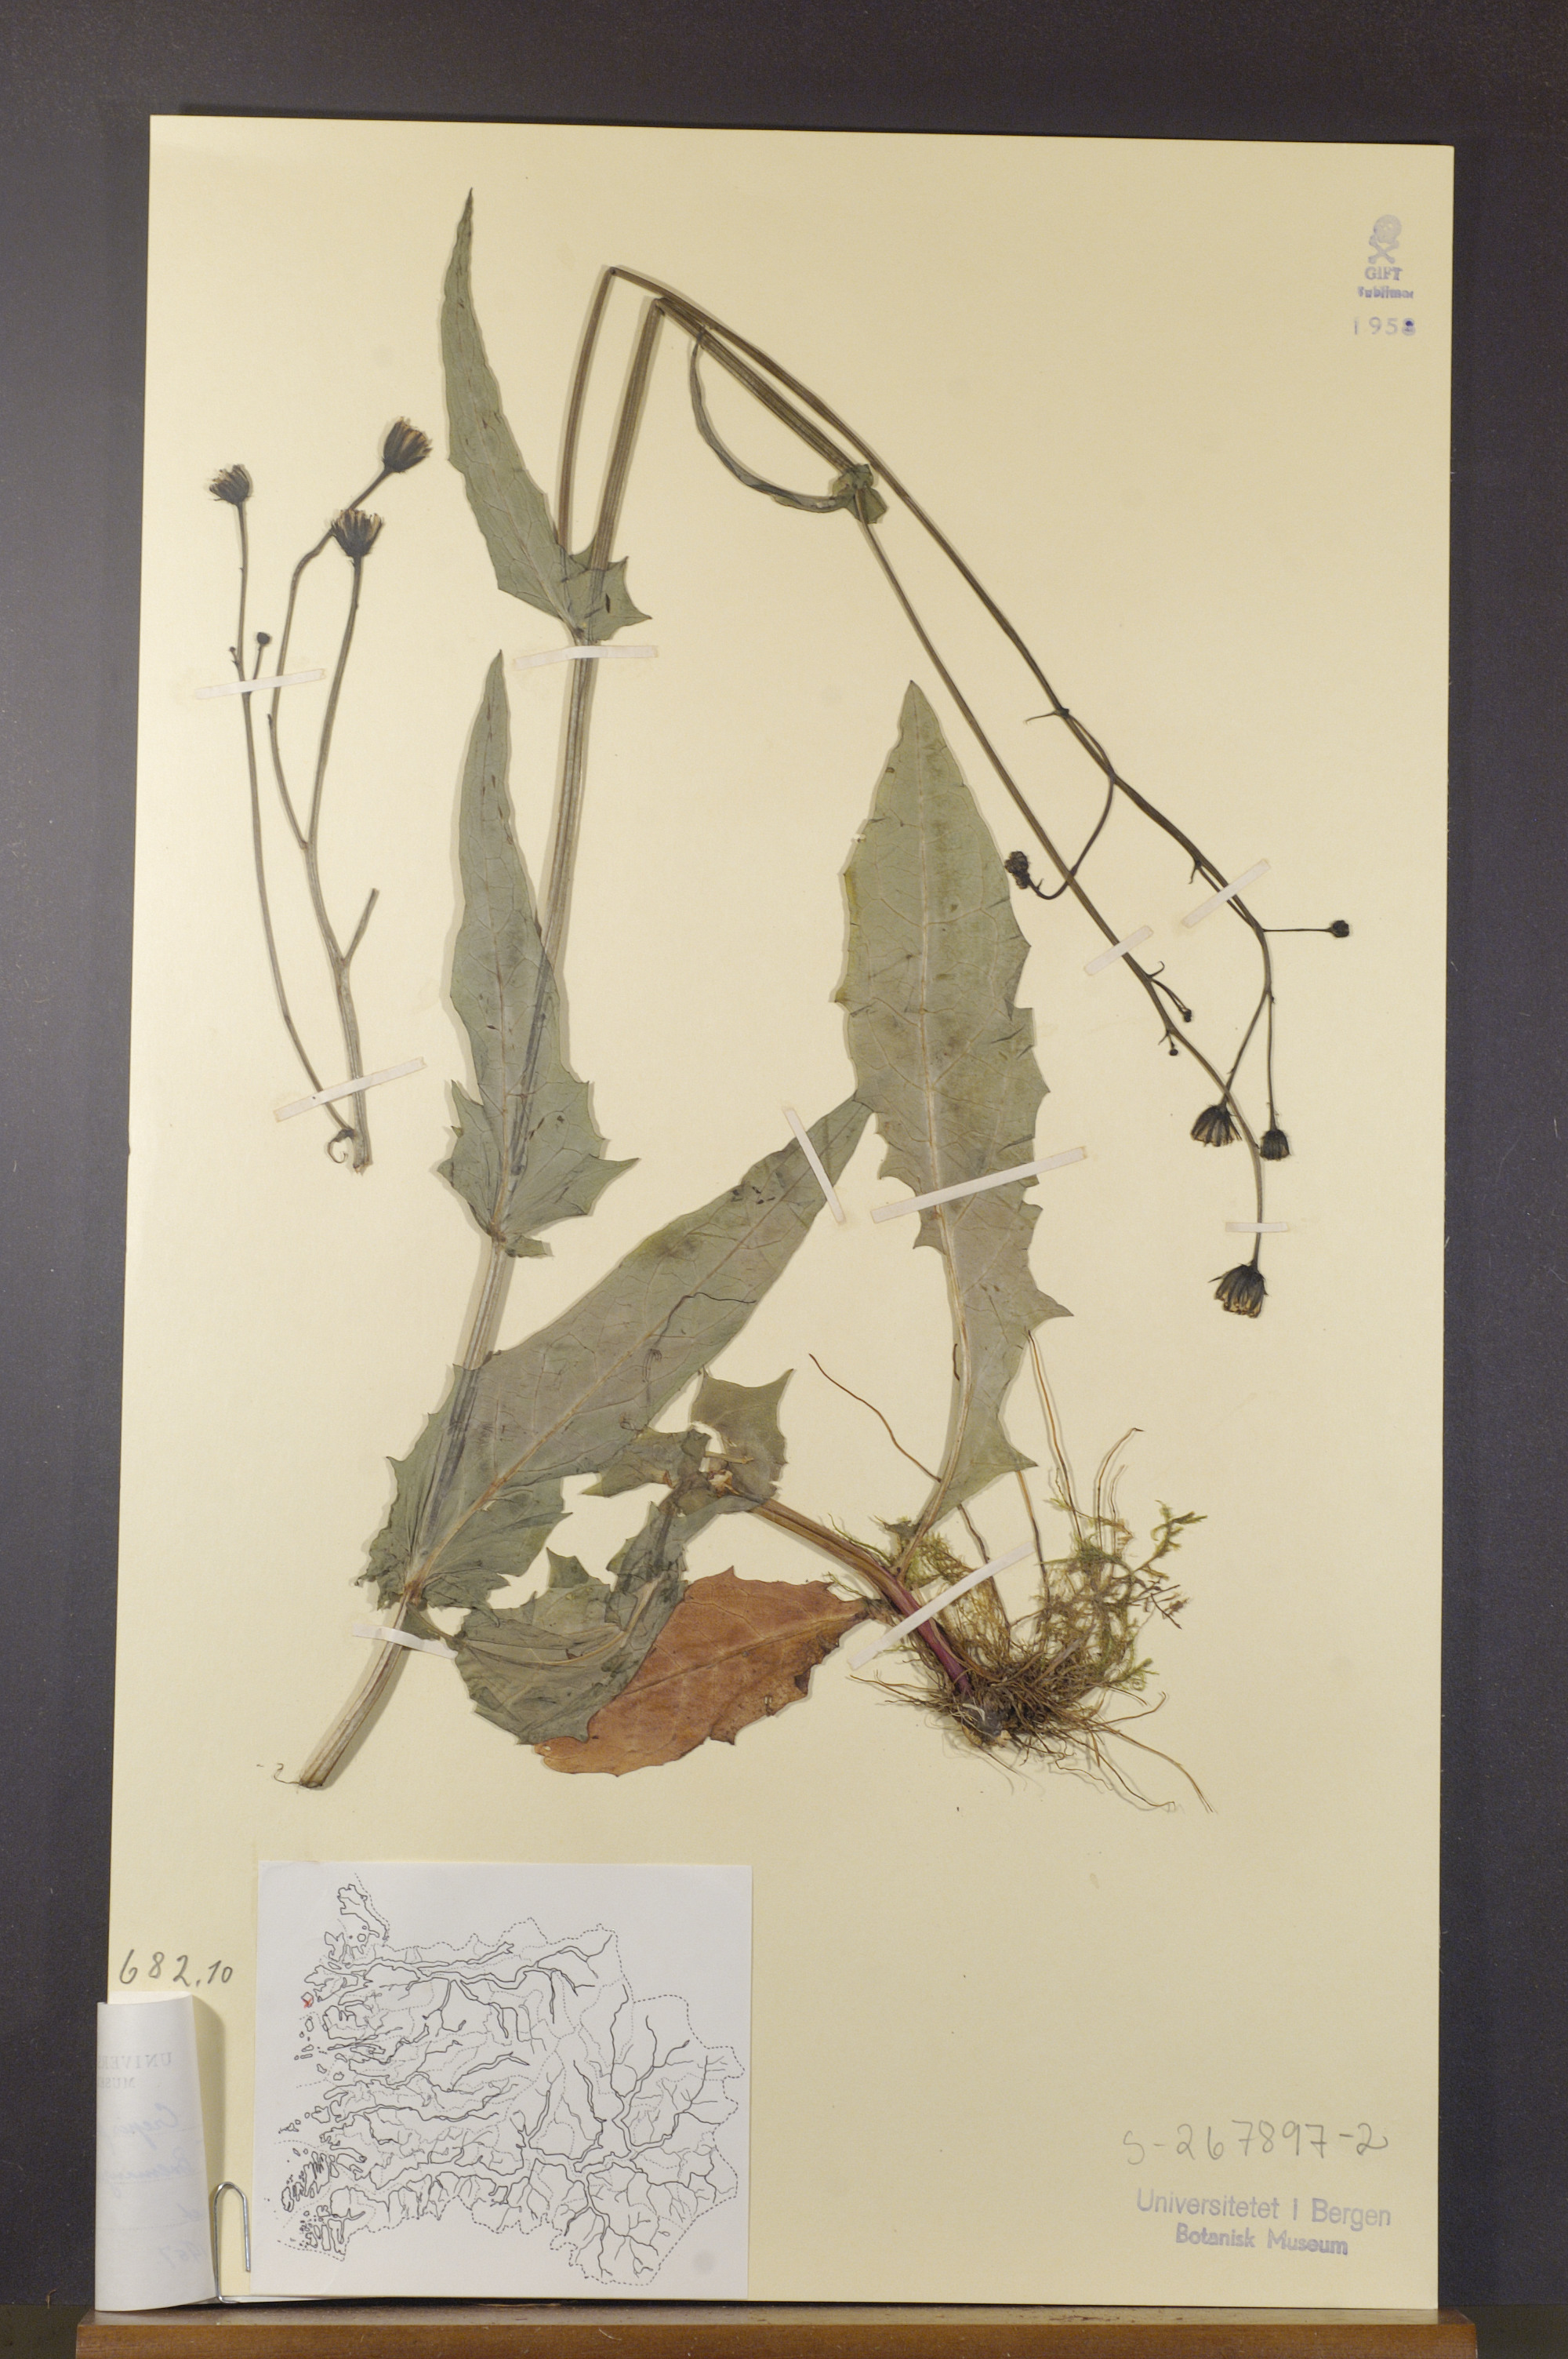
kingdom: Plantae
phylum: Tracheophyta
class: Magnoliopsida
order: Asterales
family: Asteraceae
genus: Crepis
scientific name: Crepis paludosa
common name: Marsh hawk's-beard
